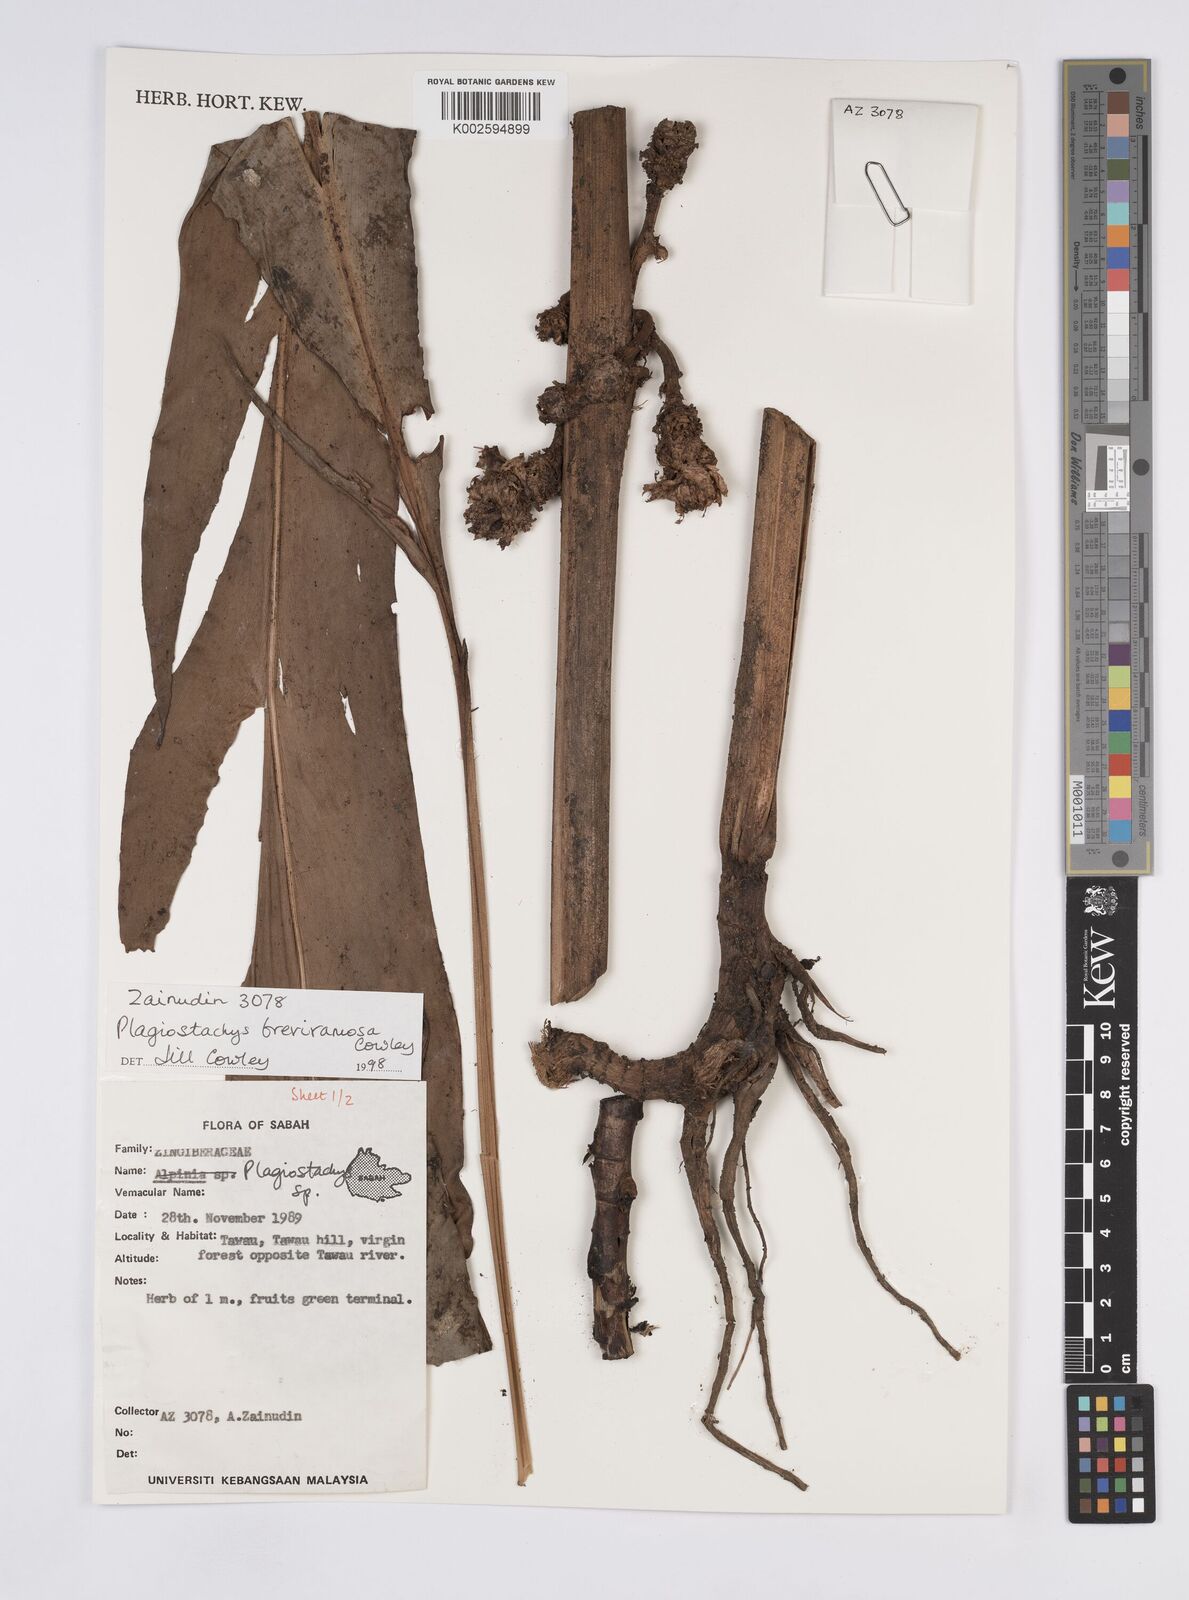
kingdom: Plantae
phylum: Tracheophyta
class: Liliopsida
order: Zingiberales
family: Zingiberaceae
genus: Plagiostachys
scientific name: Plagiostachys breviramosa
